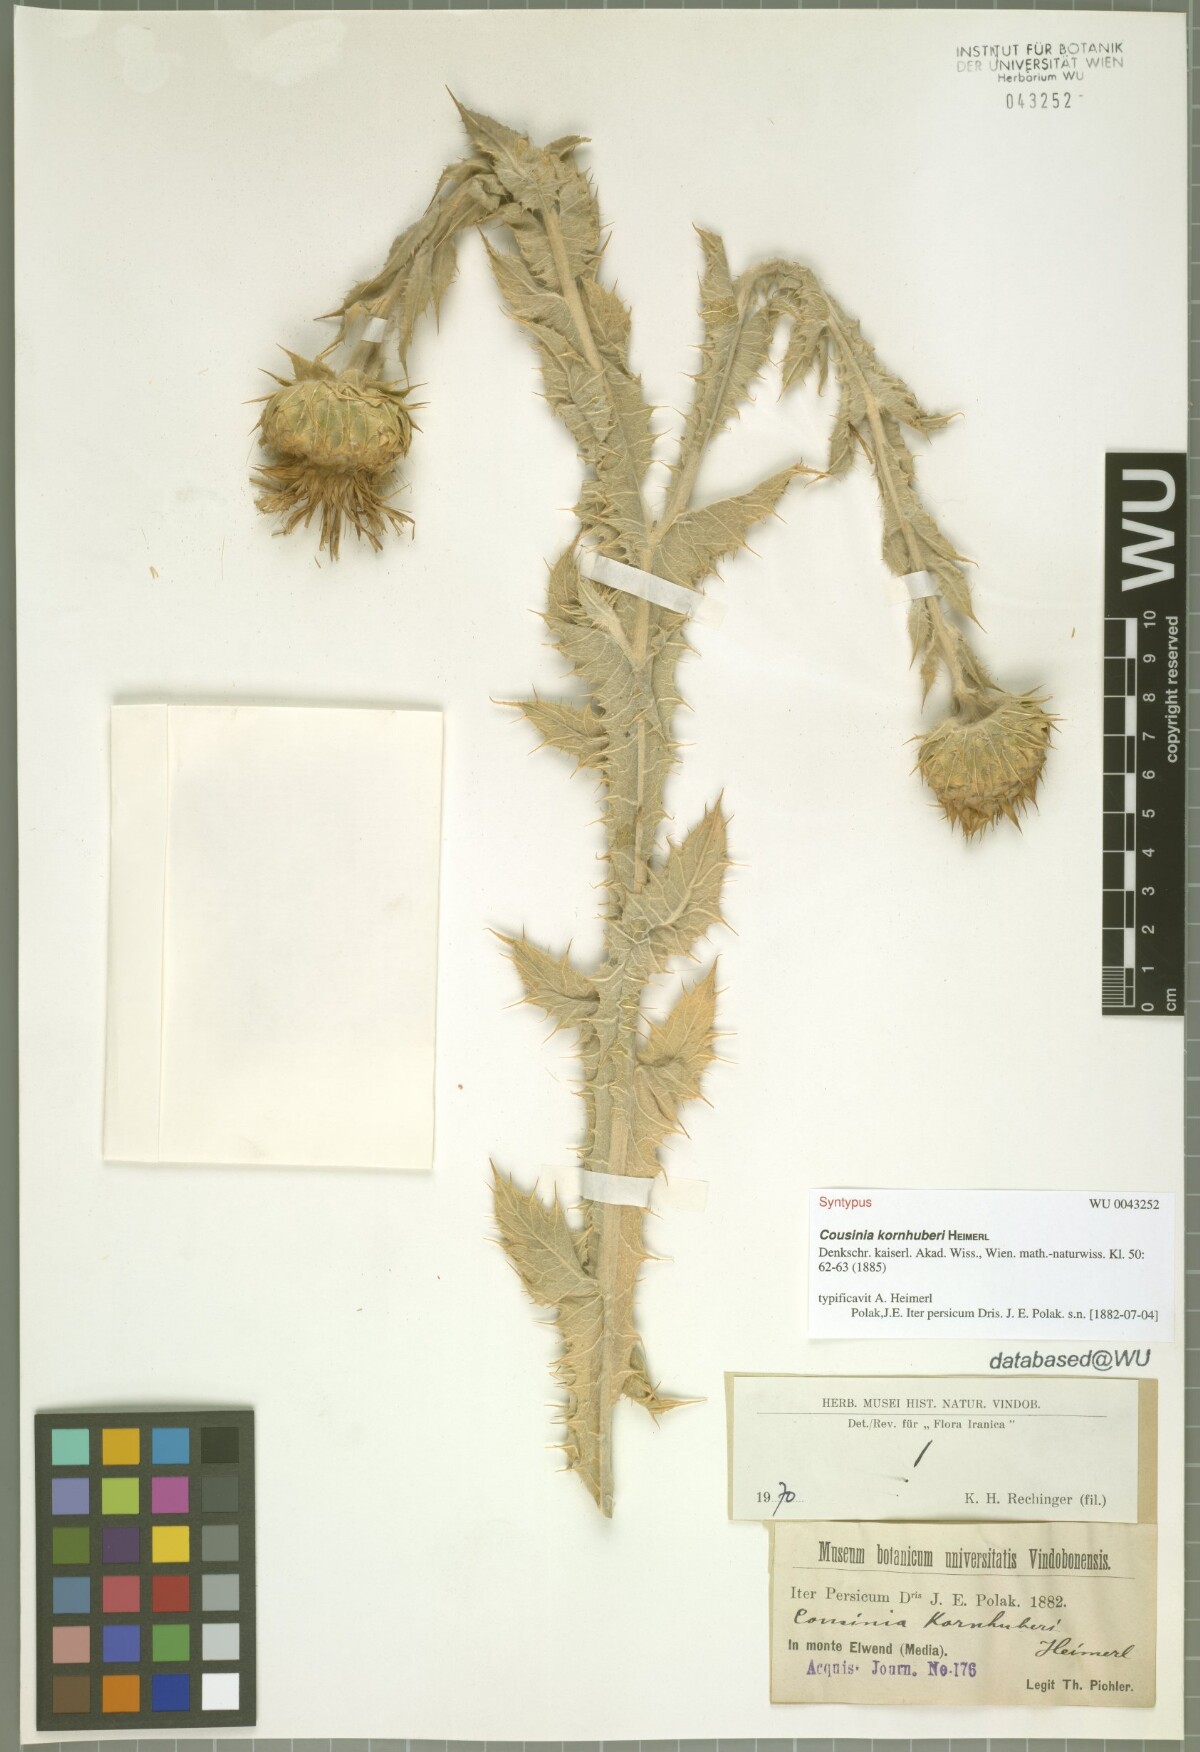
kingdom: Plantae
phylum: Tracheophyta
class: Magnoliopsida
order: Asterales
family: Asteraceae
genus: Cousinia
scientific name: Cousinia kornhuberi
